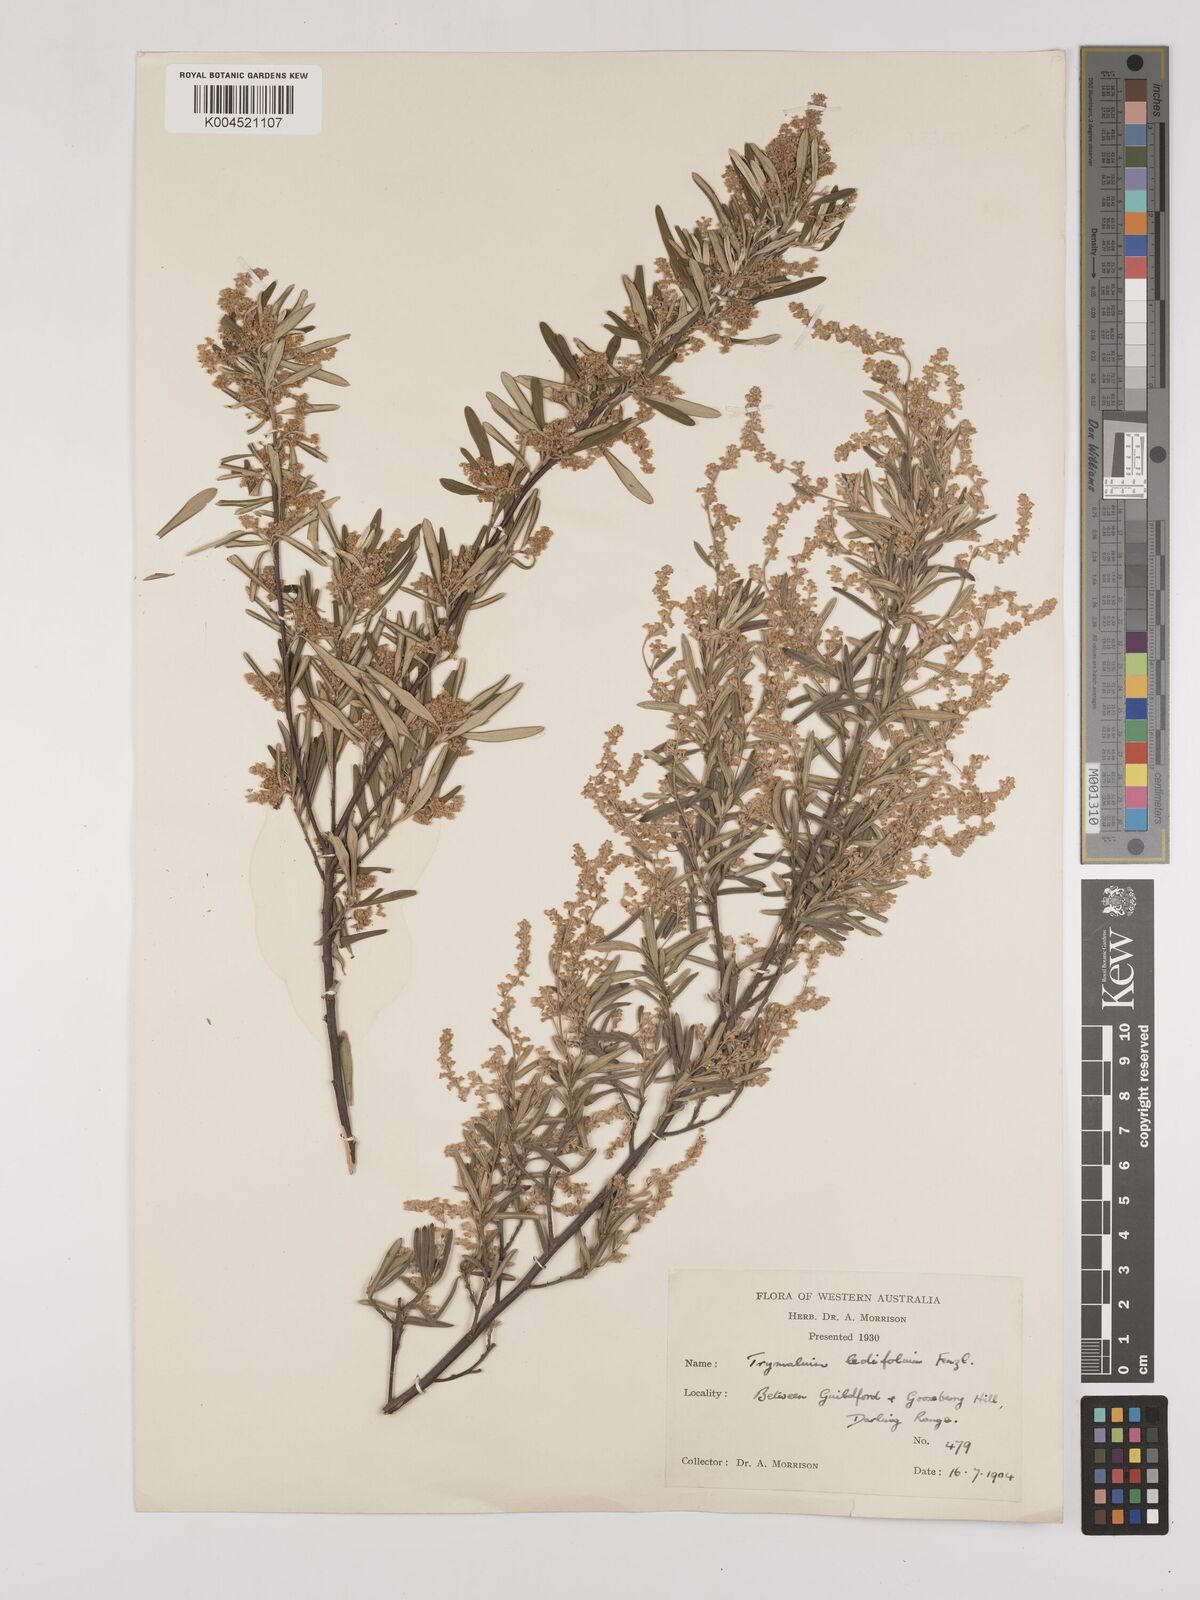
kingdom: Plantae
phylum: Tracheophyta
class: Magnoliopsida
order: Rosales
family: Rhamnaceae
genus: Trymalium
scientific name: Trymalium ledifolium
